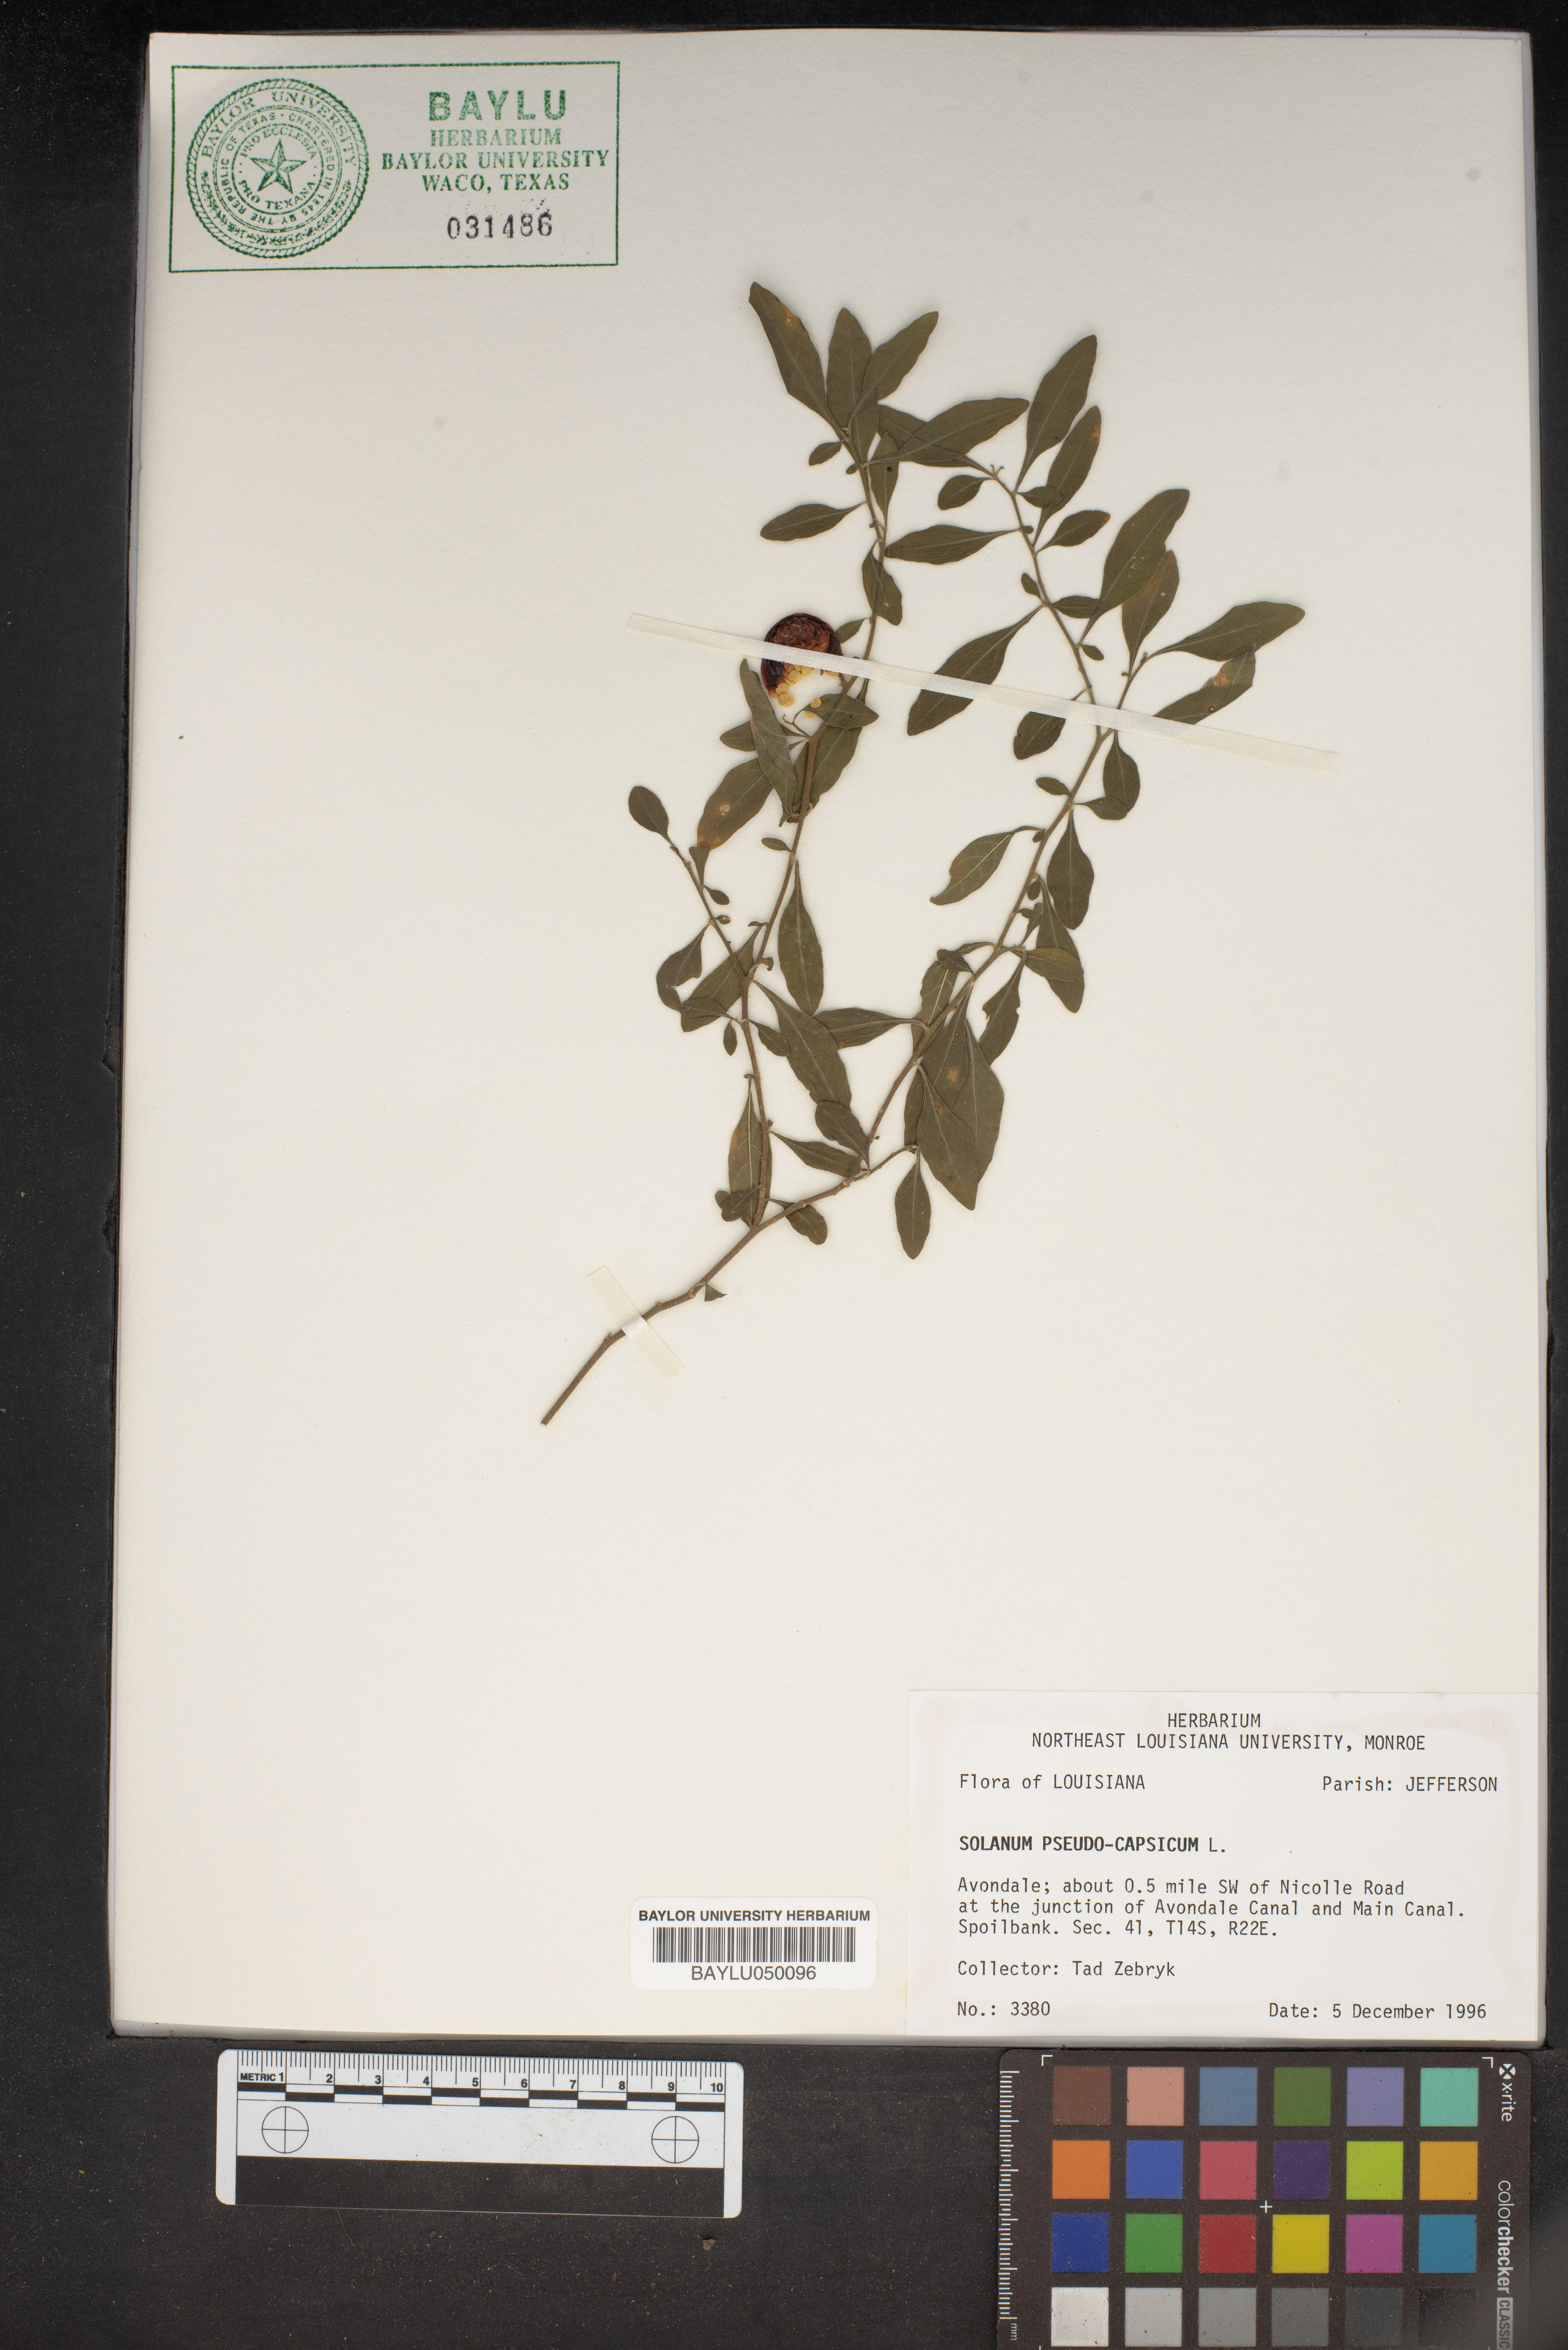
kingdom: Plantae
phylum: Tracheophyta
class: Magnoliopsida
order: Solanales
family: Solanaceae
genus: Solanum
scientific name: Solanum pseudocapsicum
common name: Jerusalem cherry
